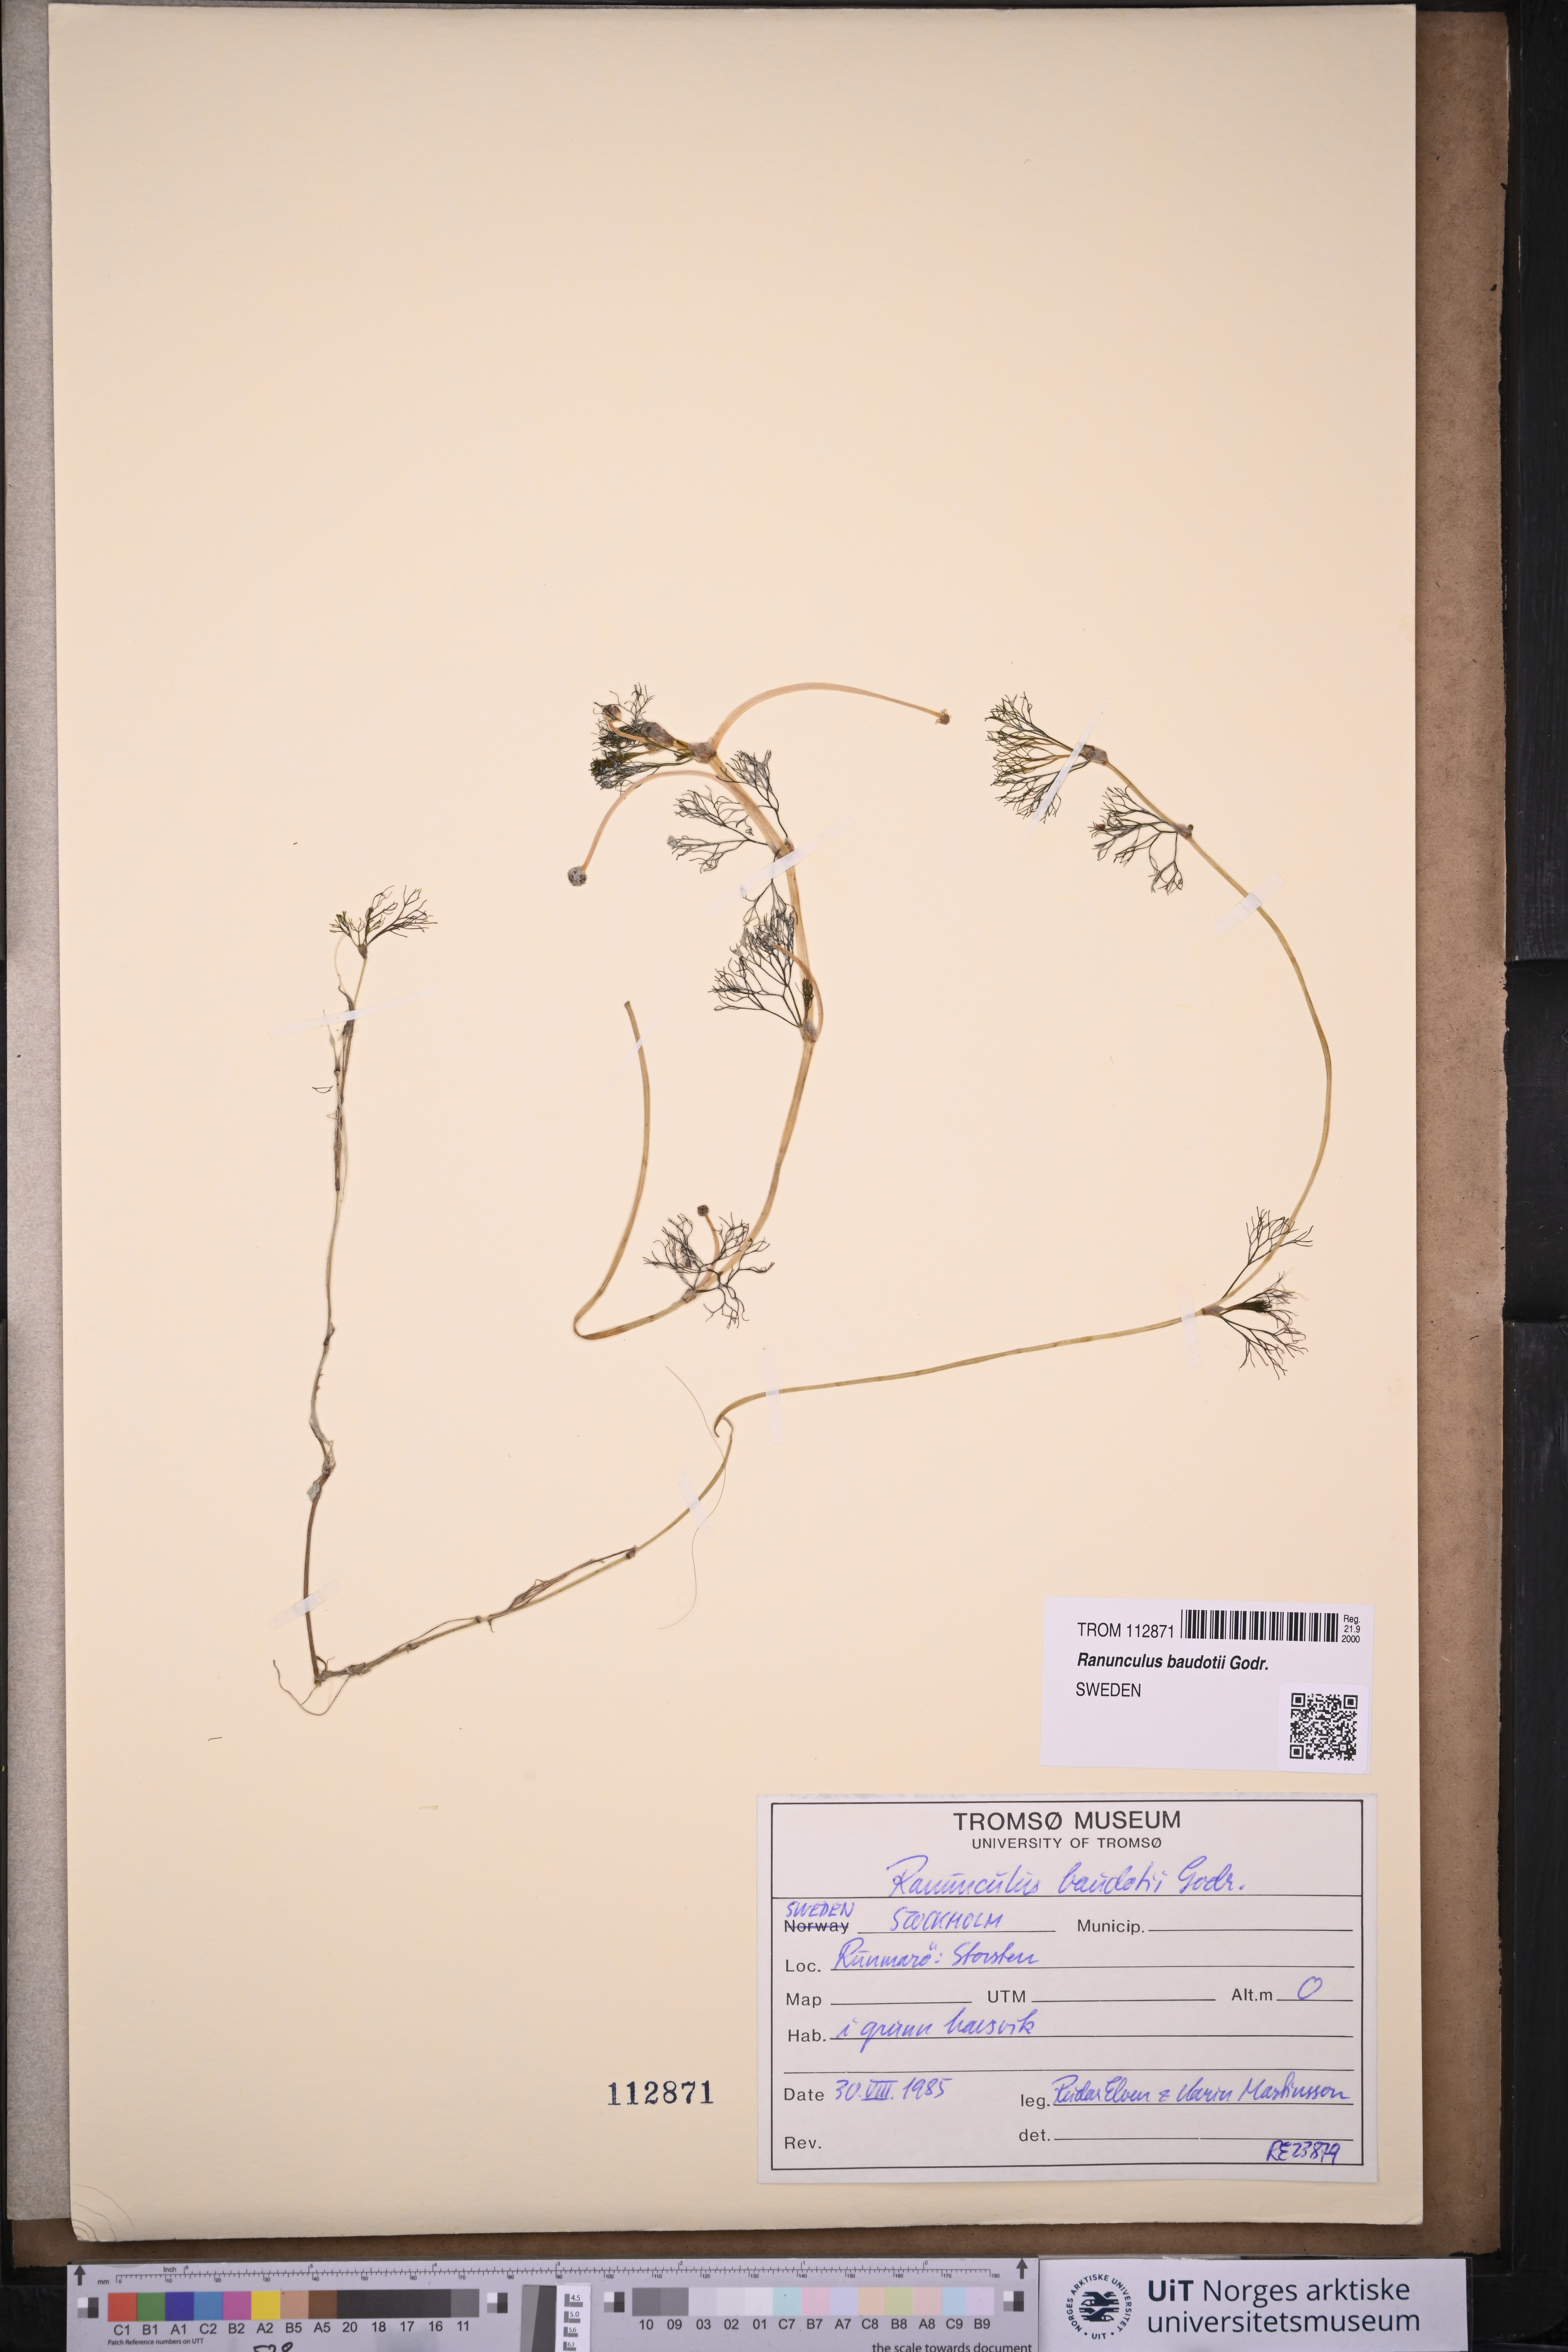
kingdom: Plantae
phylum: Tracheophyta
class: Magnoliopsida
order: Ranunculales
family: Ranunculaceae
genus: Ranunculus
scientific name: Ranunculus peltatus
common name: Pond water-crowfoot
